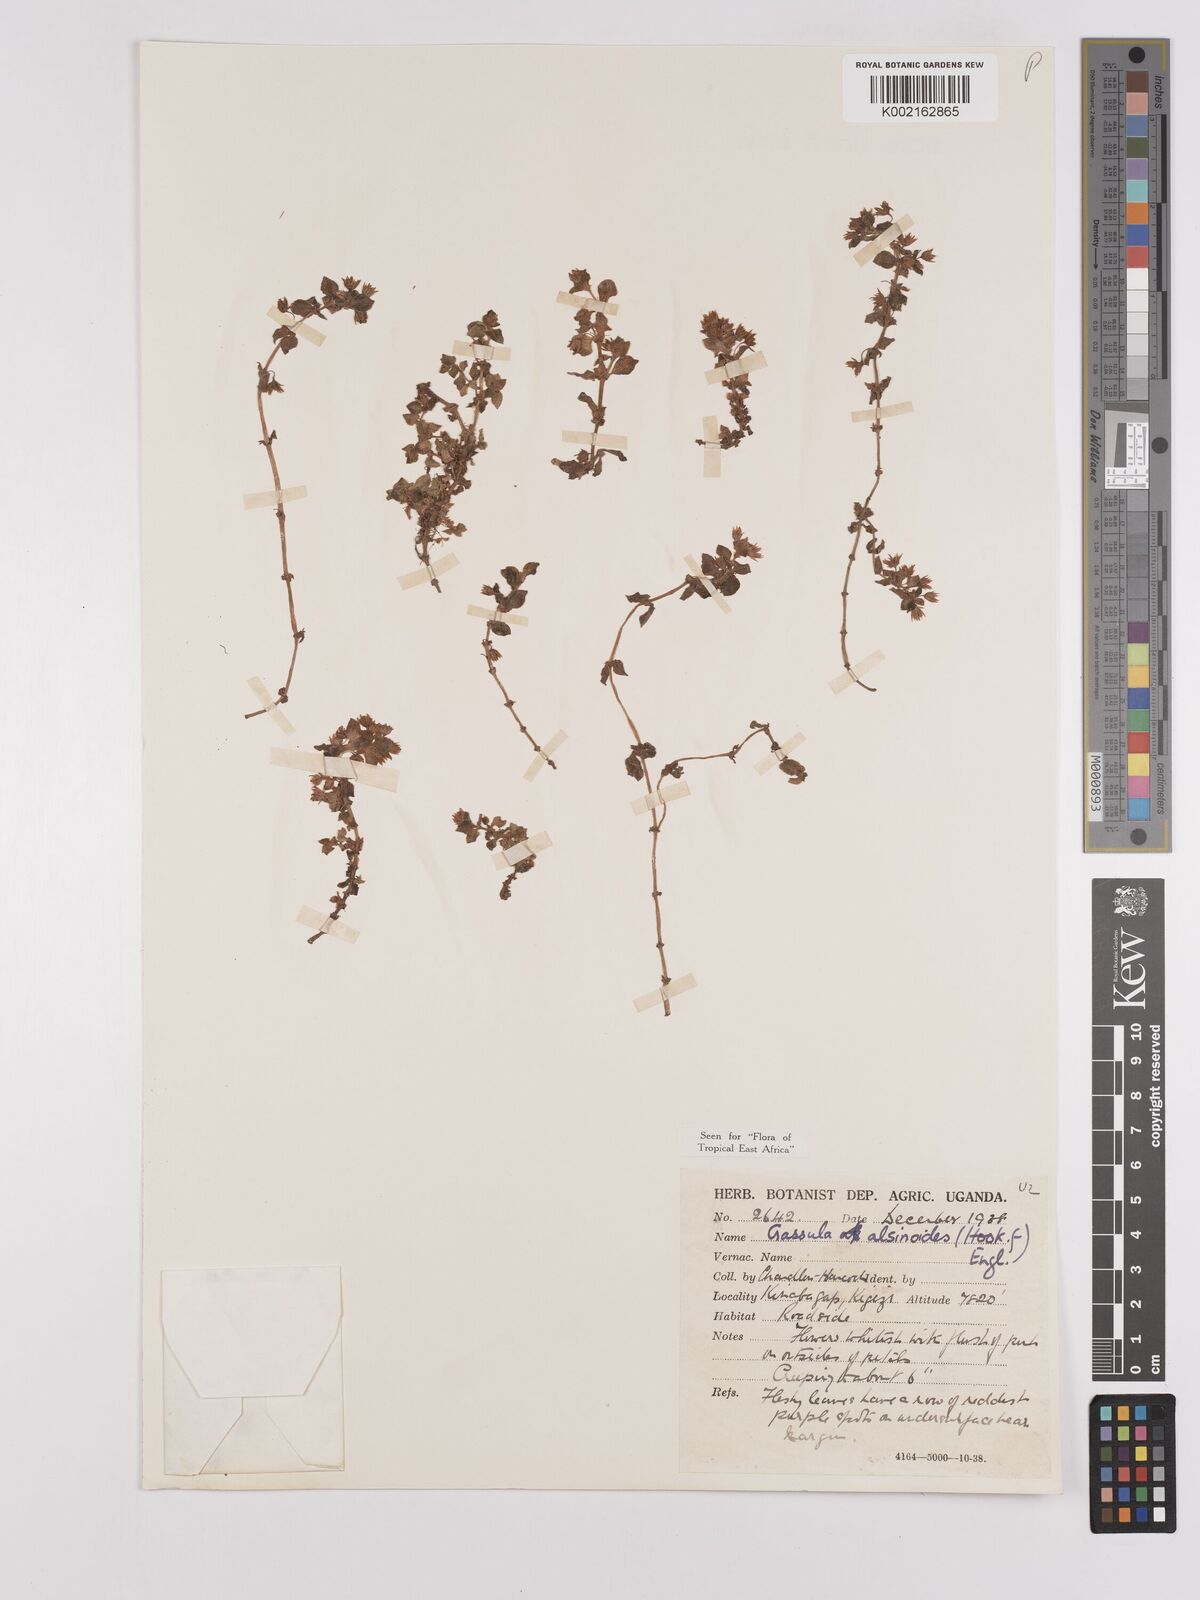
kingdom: Plantae
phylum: Tracheophyta
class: Magnoliopsida
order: Saxifragales
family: Crassulaceae
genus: Crassula
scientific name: Crassula alsinoides
